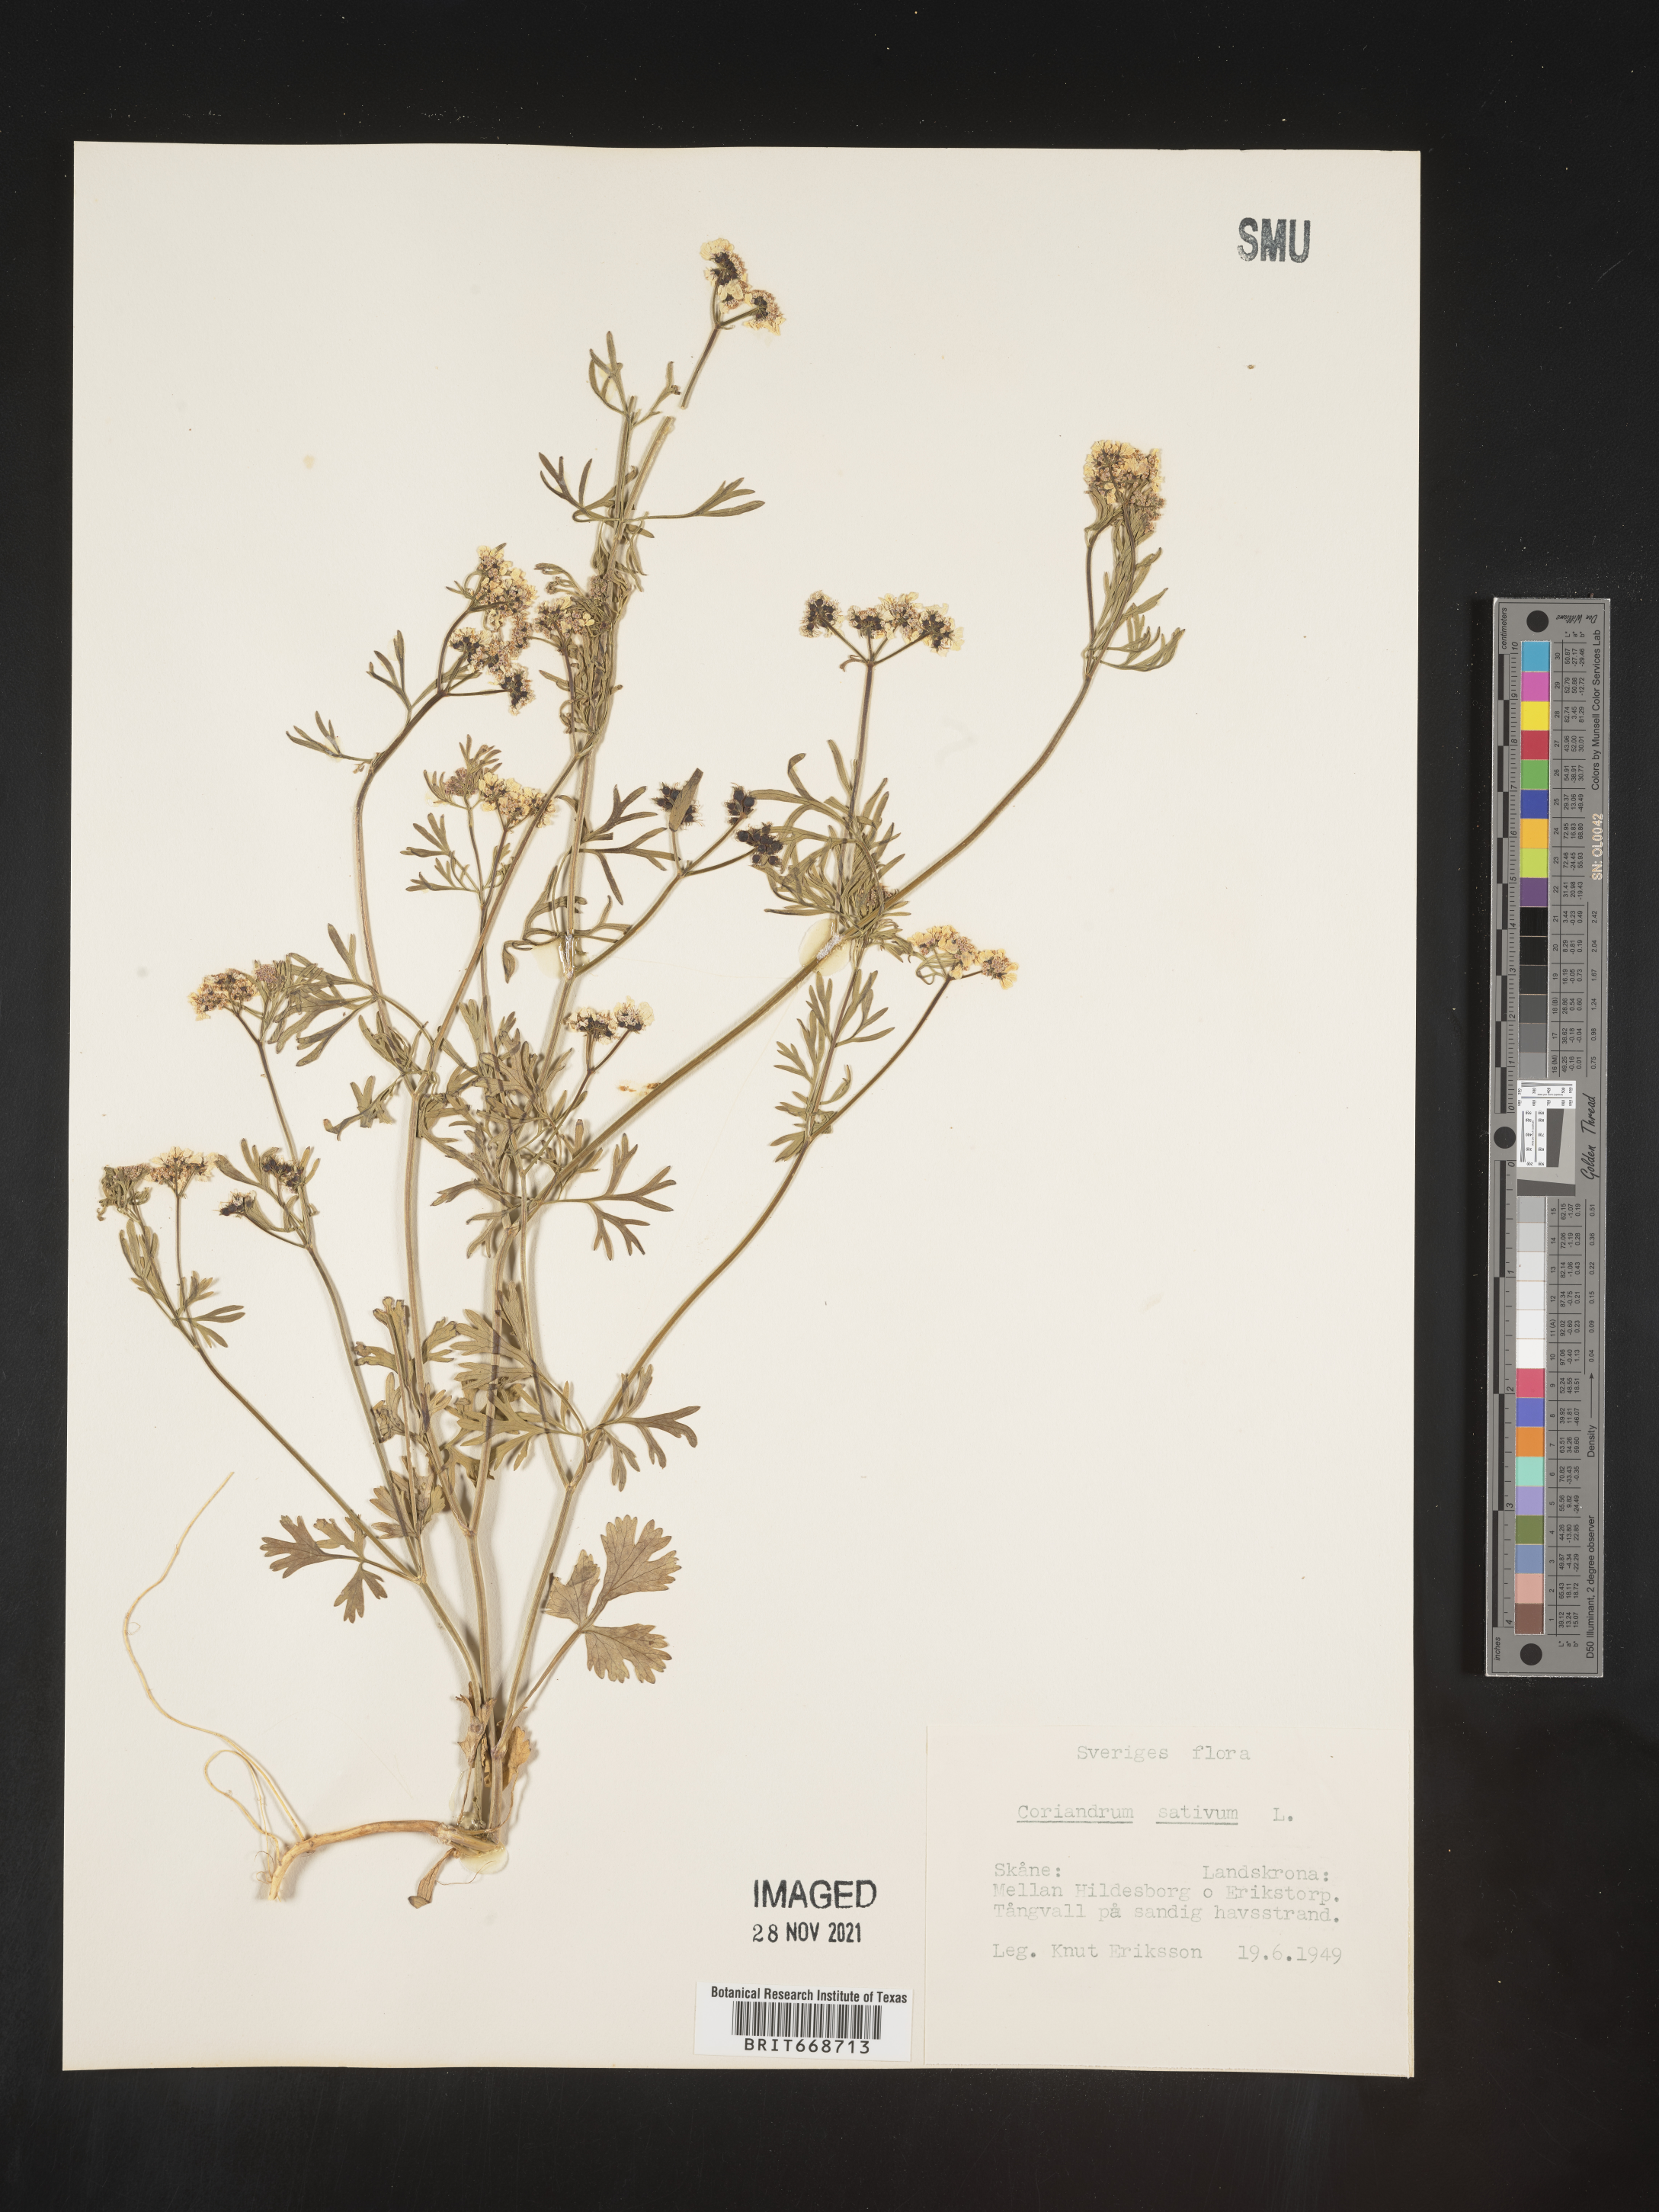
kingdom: Plantae
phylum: Tracheophyta
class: Magnoliopsida
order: Apiales
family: Apiaceae
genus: Coriandrum
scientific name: Coriandrum
